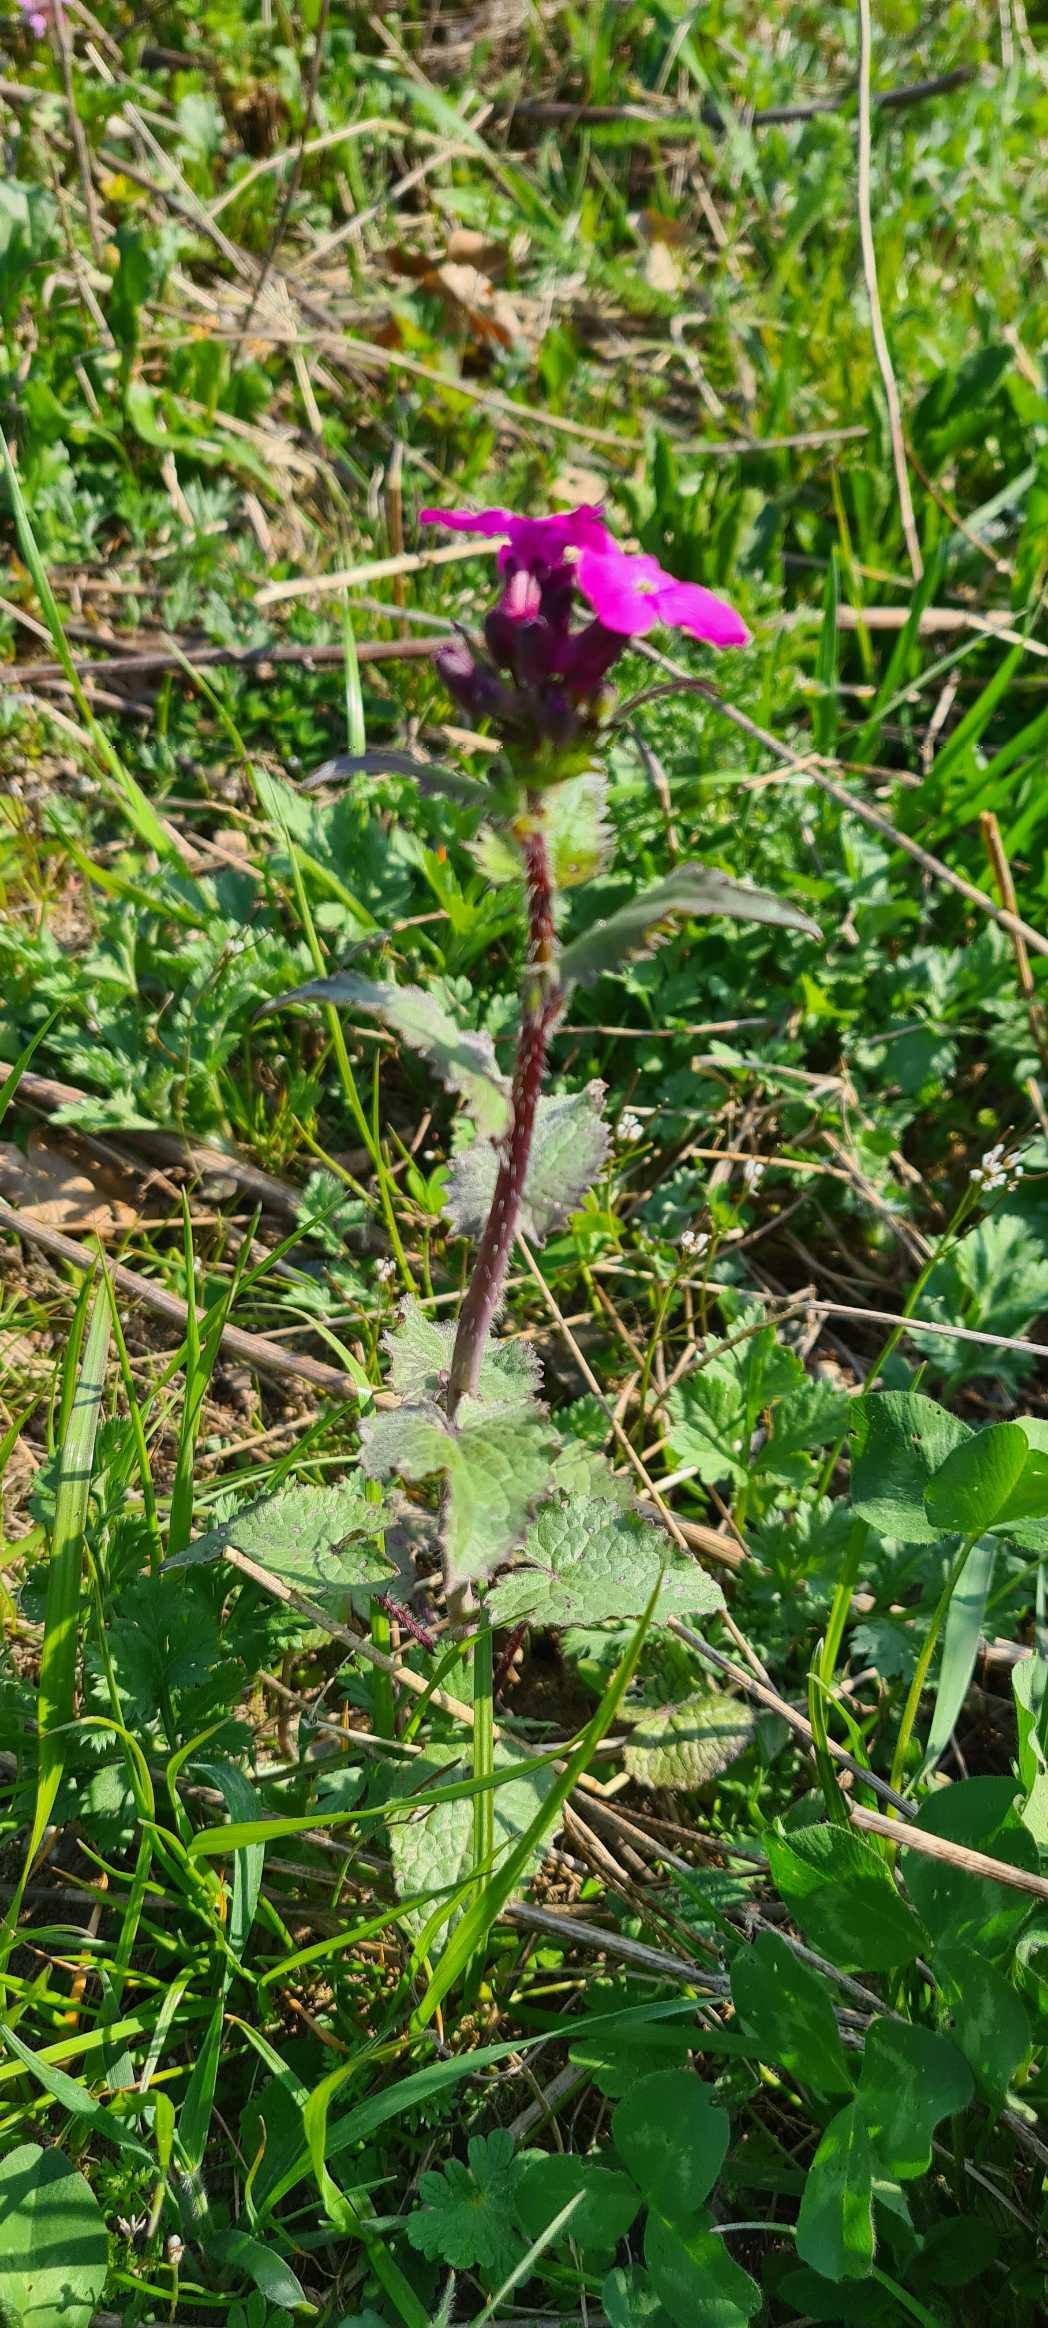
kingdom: Plantae
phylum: Tracheophyta
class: Magnoliopsida
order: Brassicales
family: Brassicaceae
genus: Lunaria
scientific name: Lunaria annua
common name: Judaspenge
